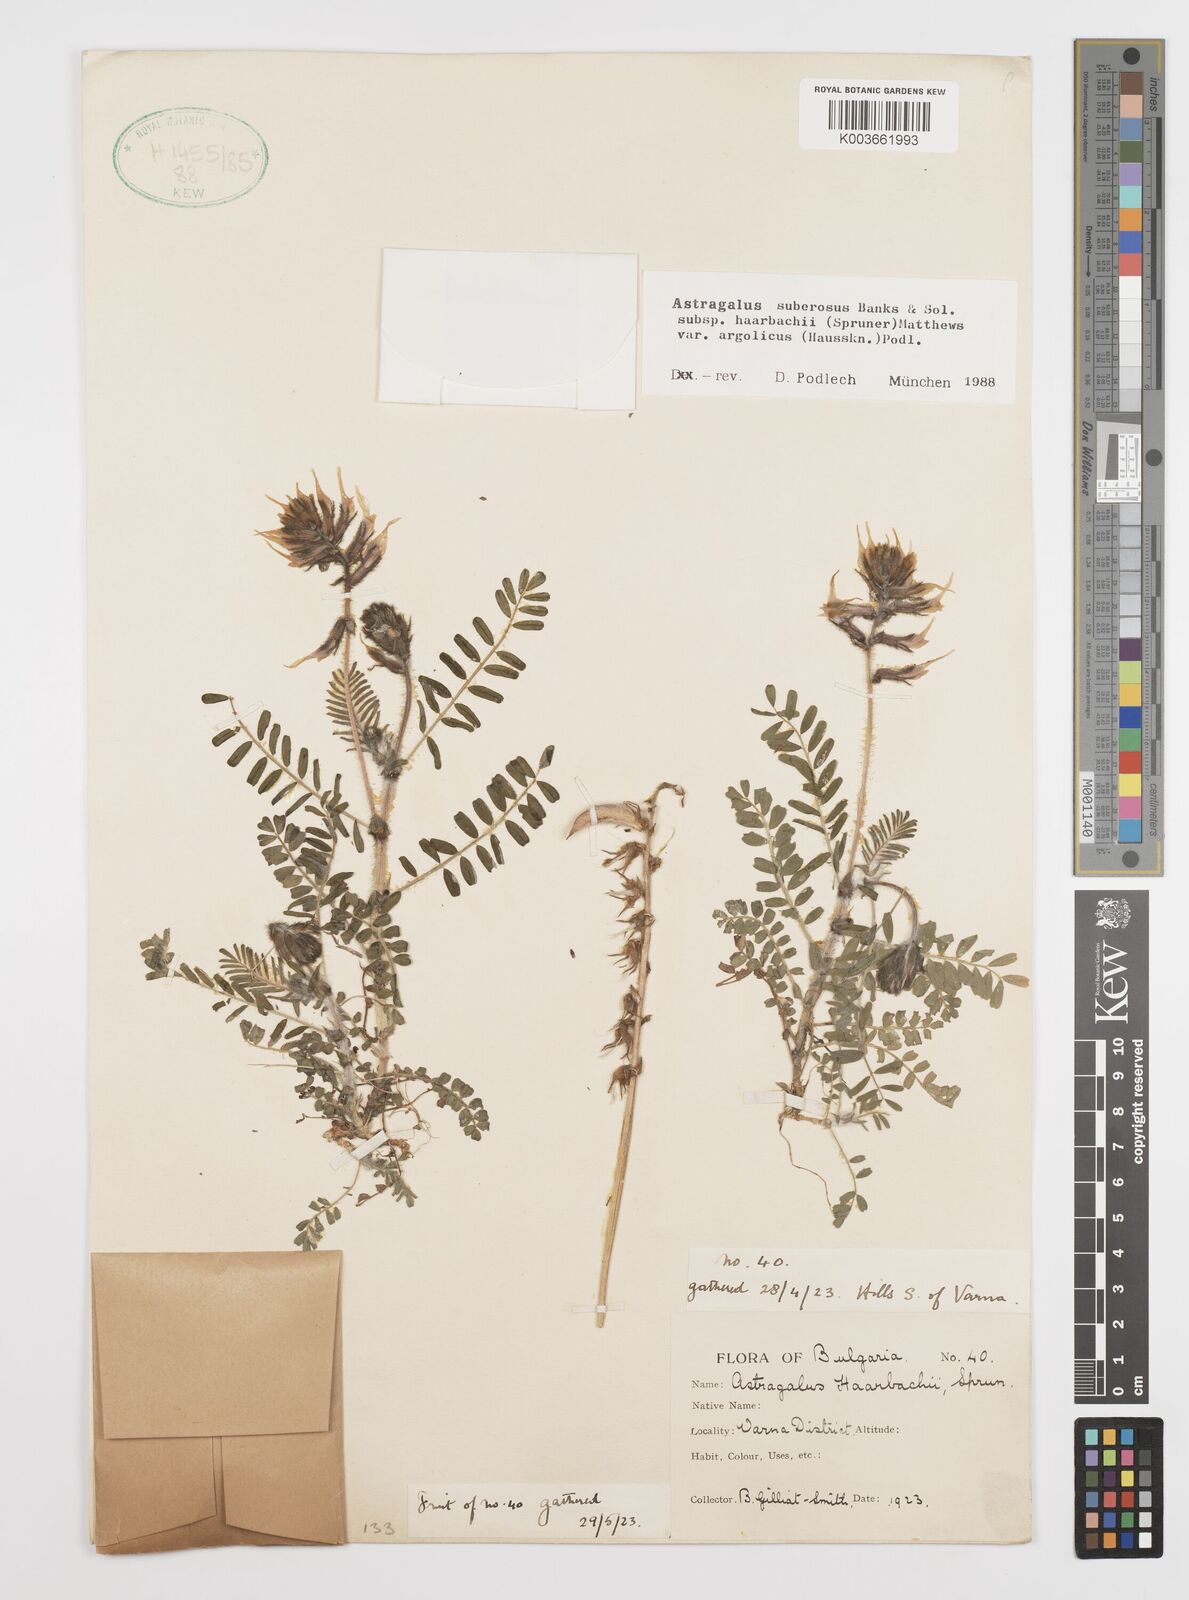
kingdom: Plantae
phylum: Tracheophyta
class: Magnoliopsida
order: Fabales
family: Fabaceae
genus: Astragalus
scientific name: Astragalus
